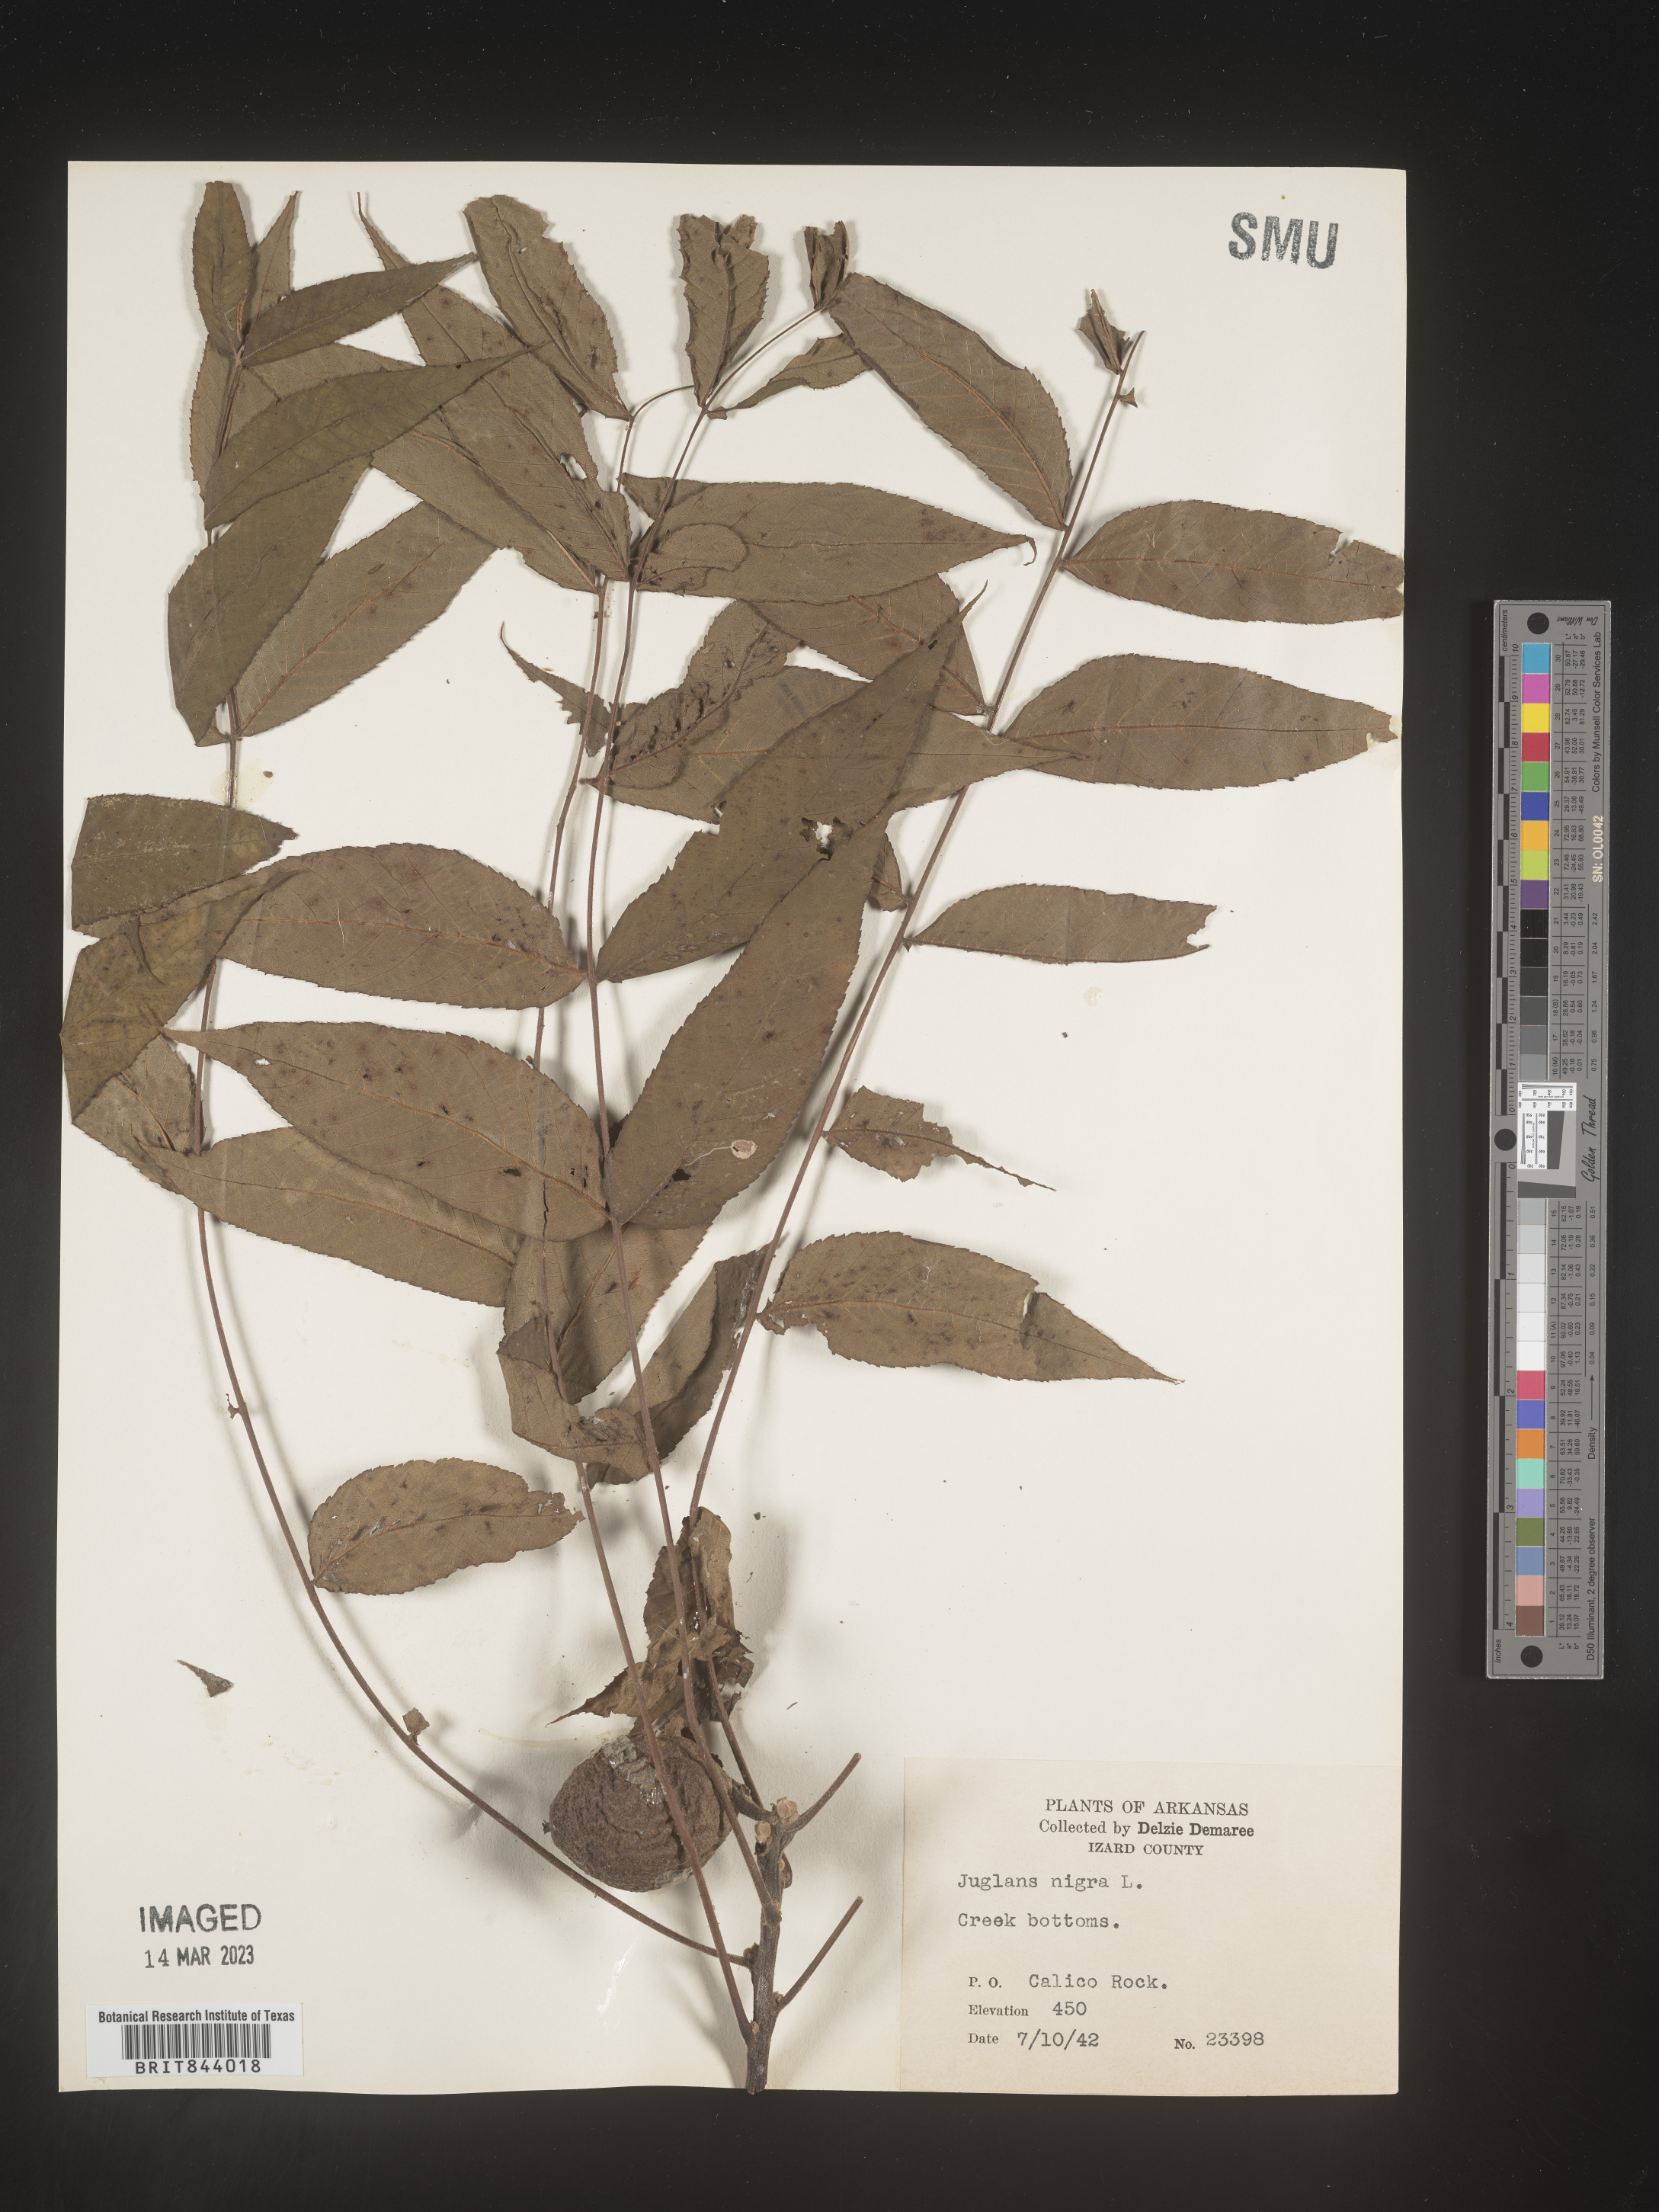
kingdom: Plantae
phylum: Tracheophyta
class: Magnoliopsida
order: Fagales
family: Juglandaceae
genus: Juglans
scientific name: Juglans nigra
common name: Black walnut
